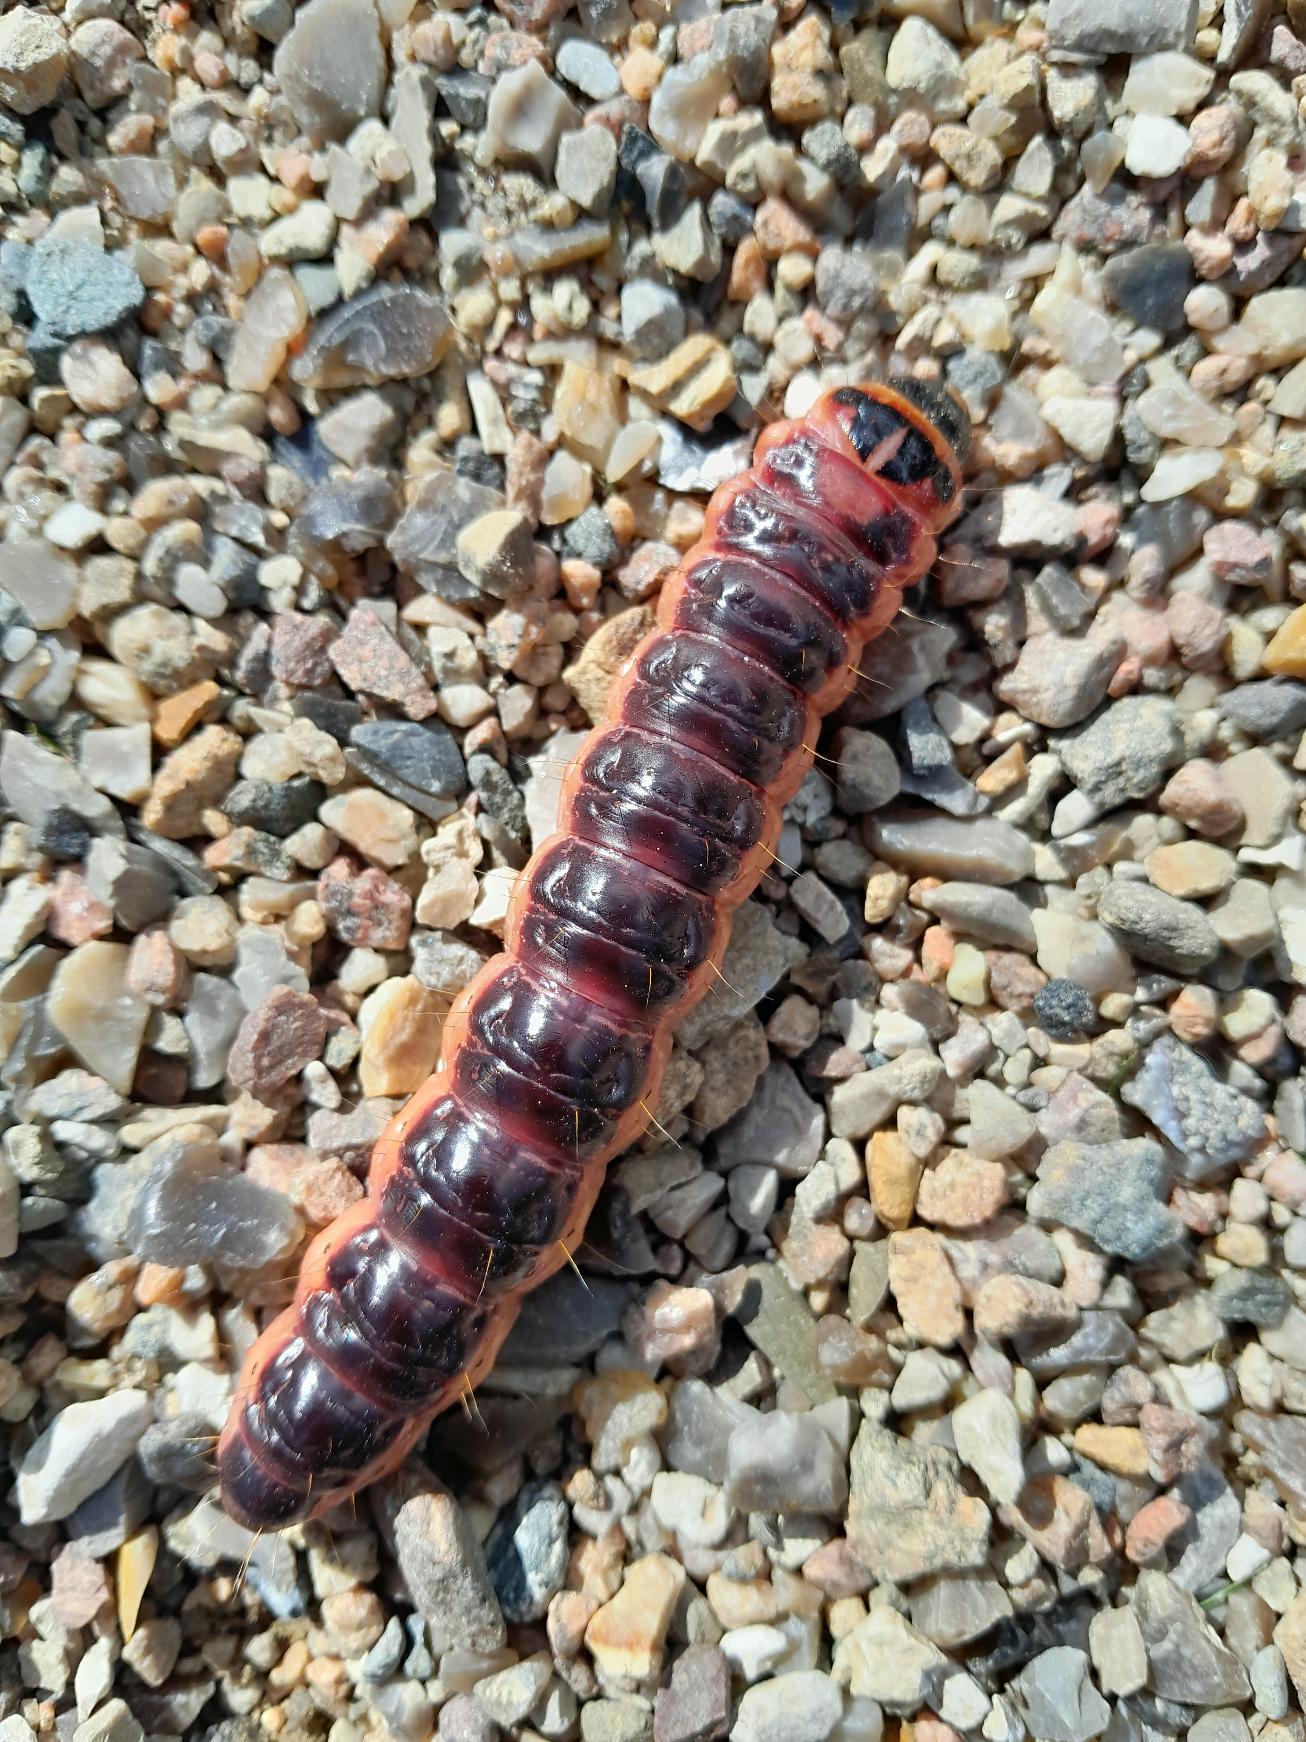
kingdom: Animalia
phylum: Arthropoda
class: Insecta
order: Lepidoptera
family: Cossidae
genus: Cossus
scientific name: Cossus cossus
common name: Pileborer
